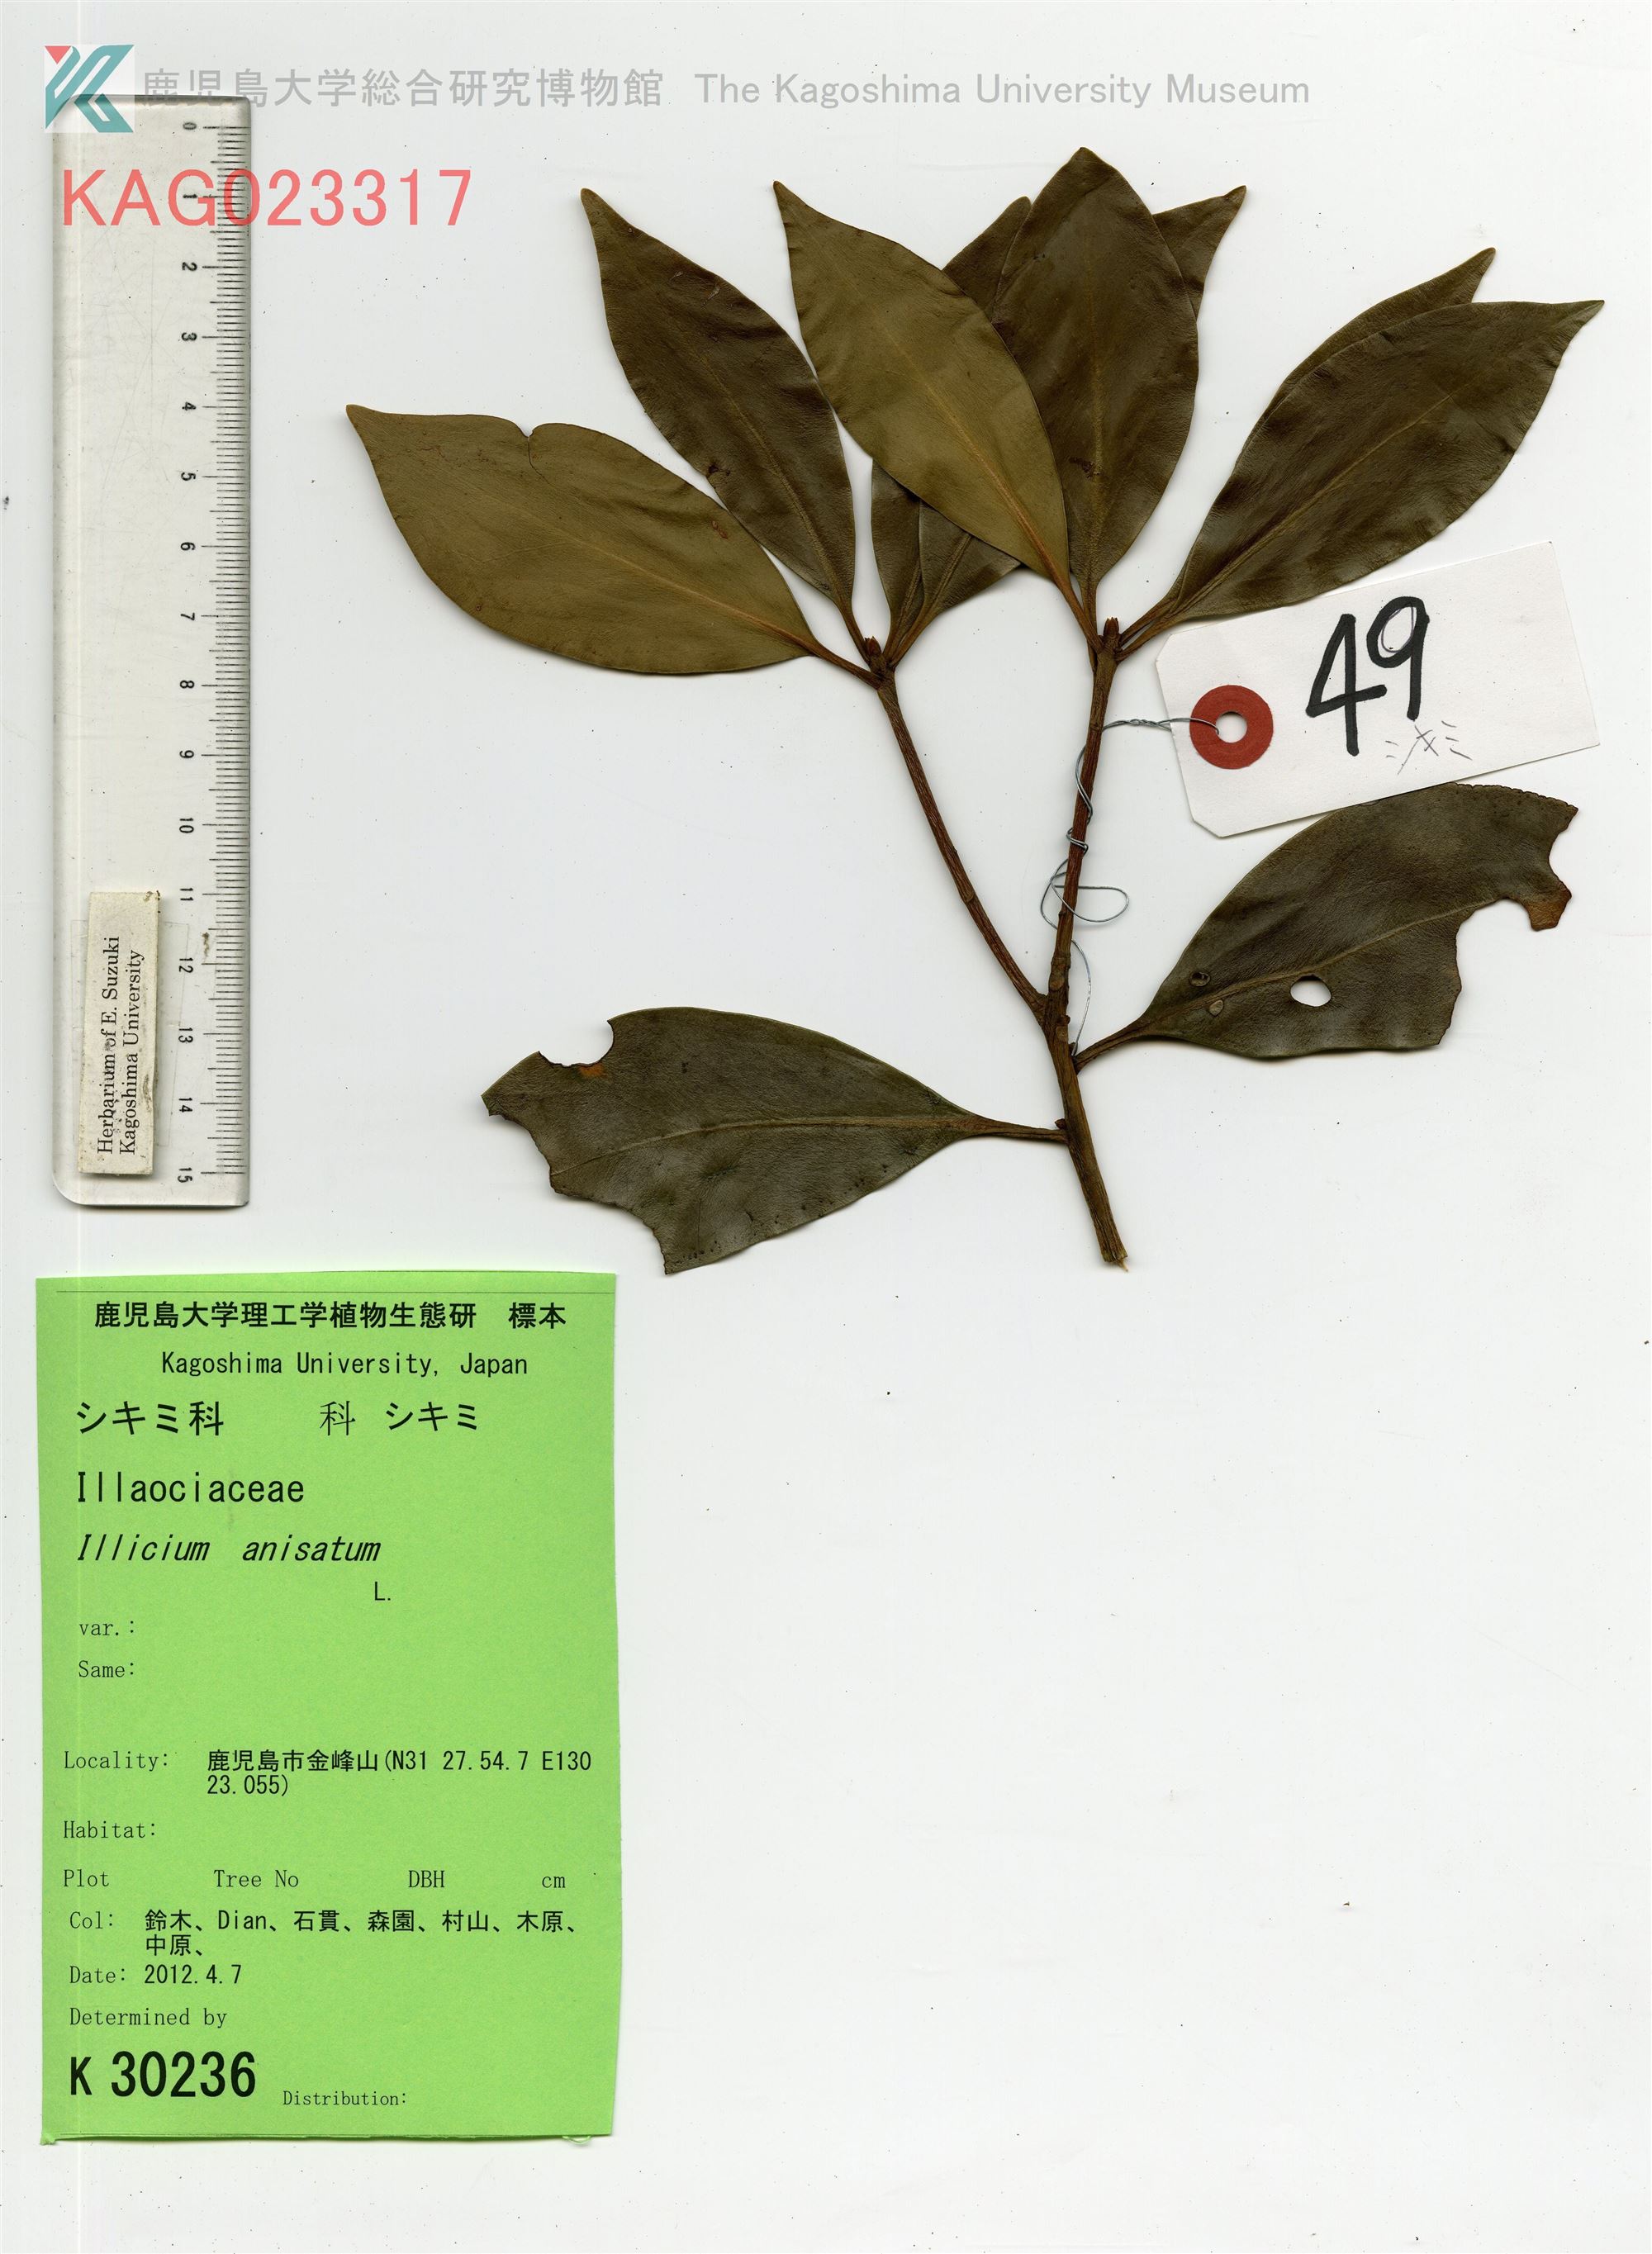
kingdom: Plantae
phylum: Tracheophyta
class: Magnoliopsida
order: Austrobaileyales
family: Schisandraceae
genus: Illicium
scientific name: Illicium anisatum
